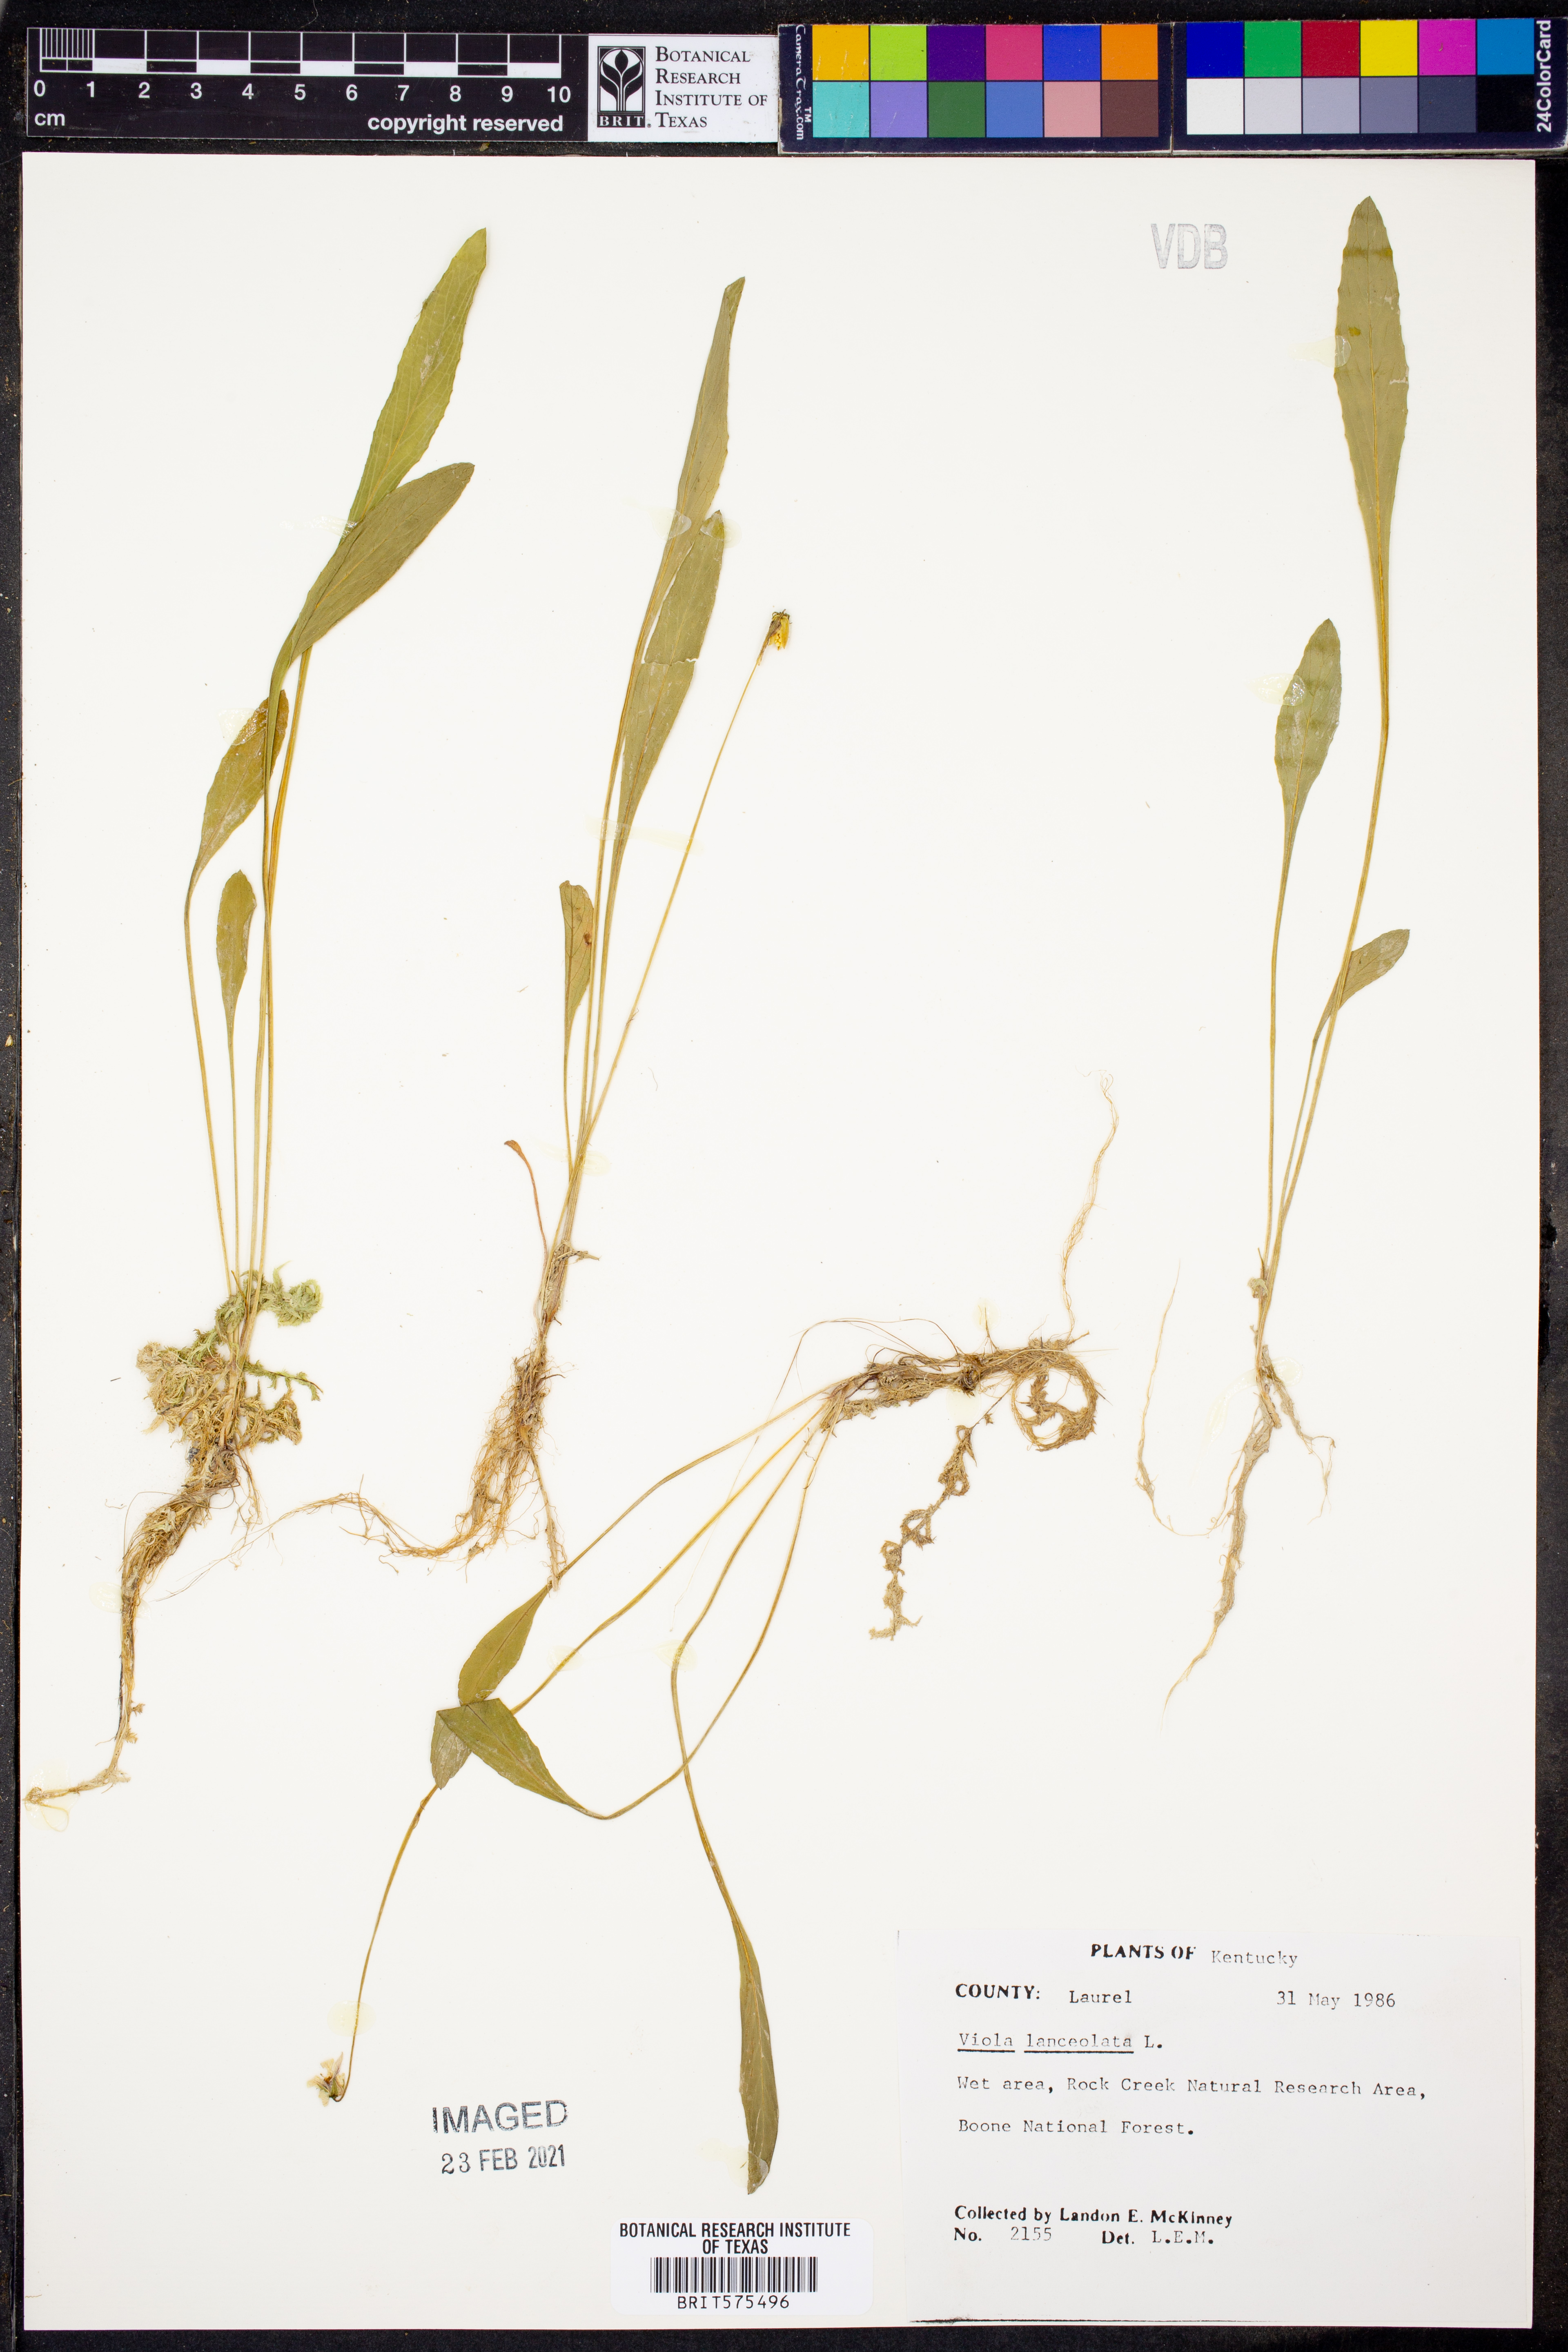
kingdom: Plantae
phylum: Tracheophyta
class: Magnoliopsida
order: Malpighiales
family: Violaceae
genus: Viola
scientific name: Viola lanceolata
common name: Bog white violet
